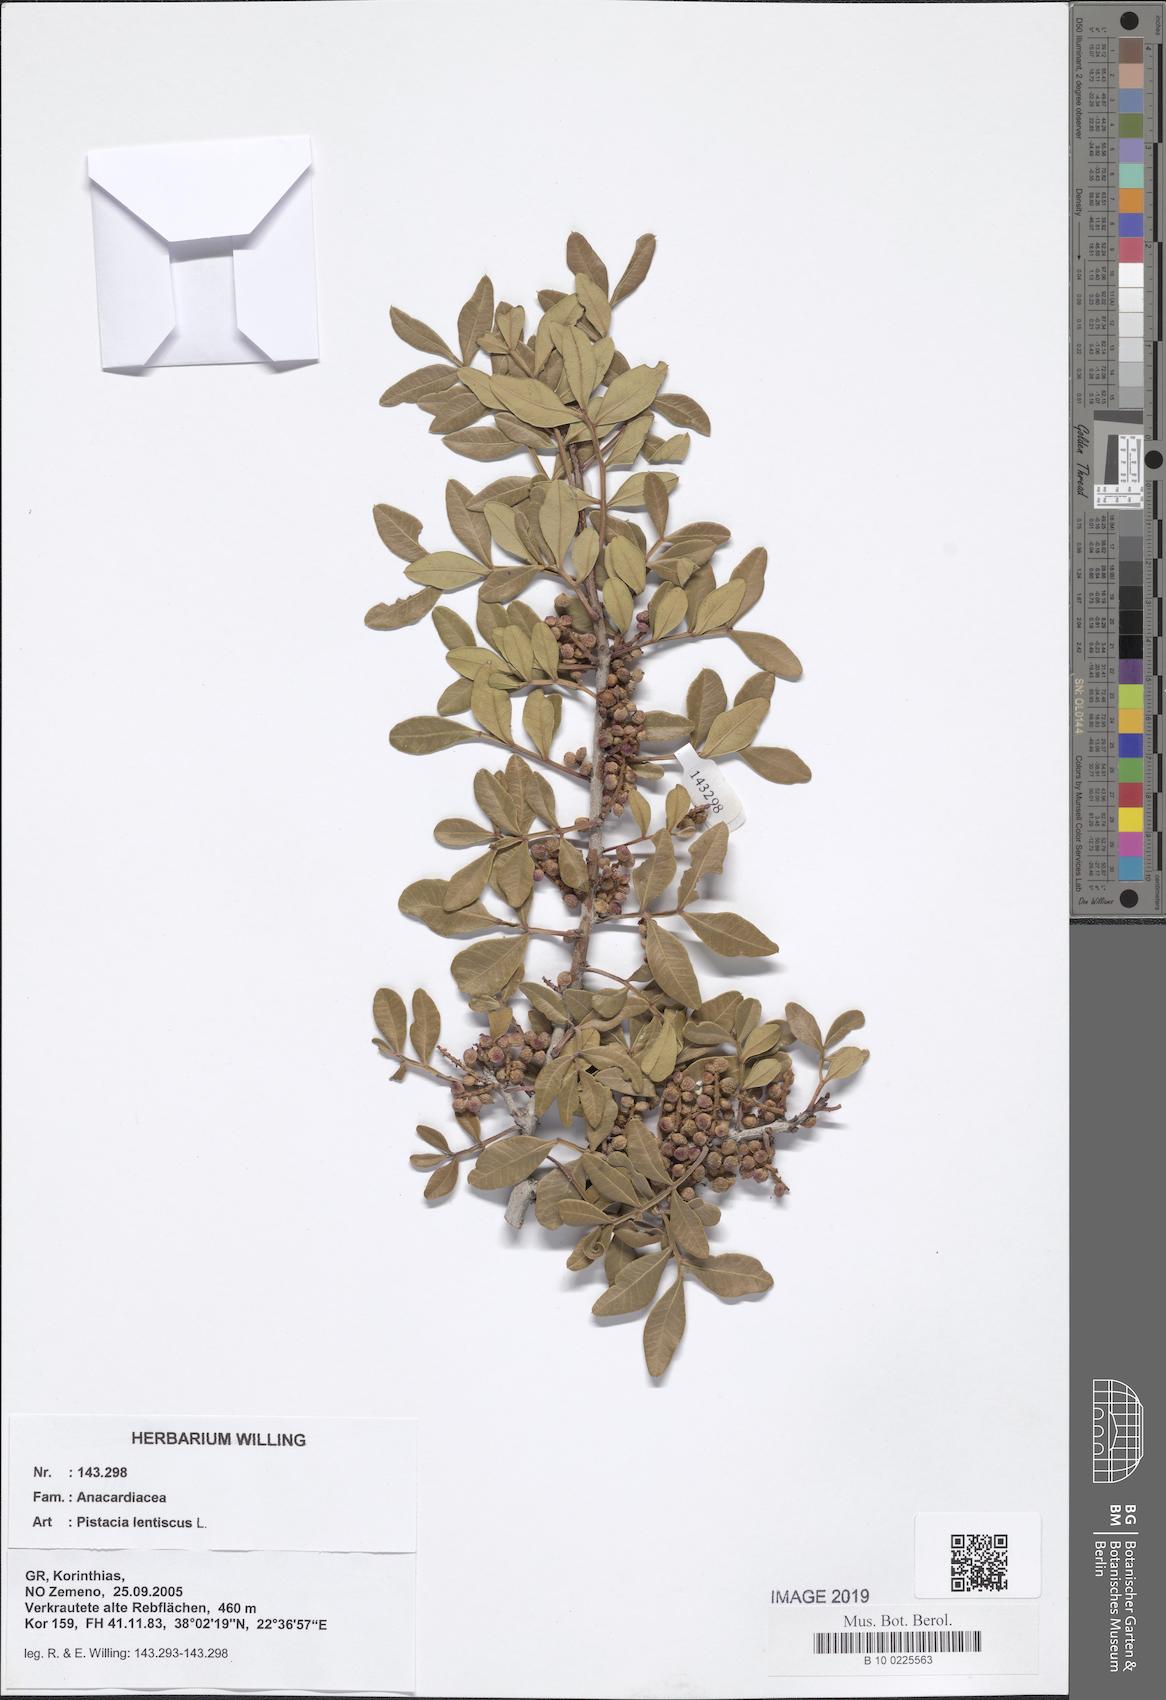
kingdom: Plantae
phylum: Tracheophyta
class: Magnoliopsida
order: Sapindales
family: Anacardiaceae
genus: Pistacia
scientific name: Pistacia lentiscus
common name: Lentisk
